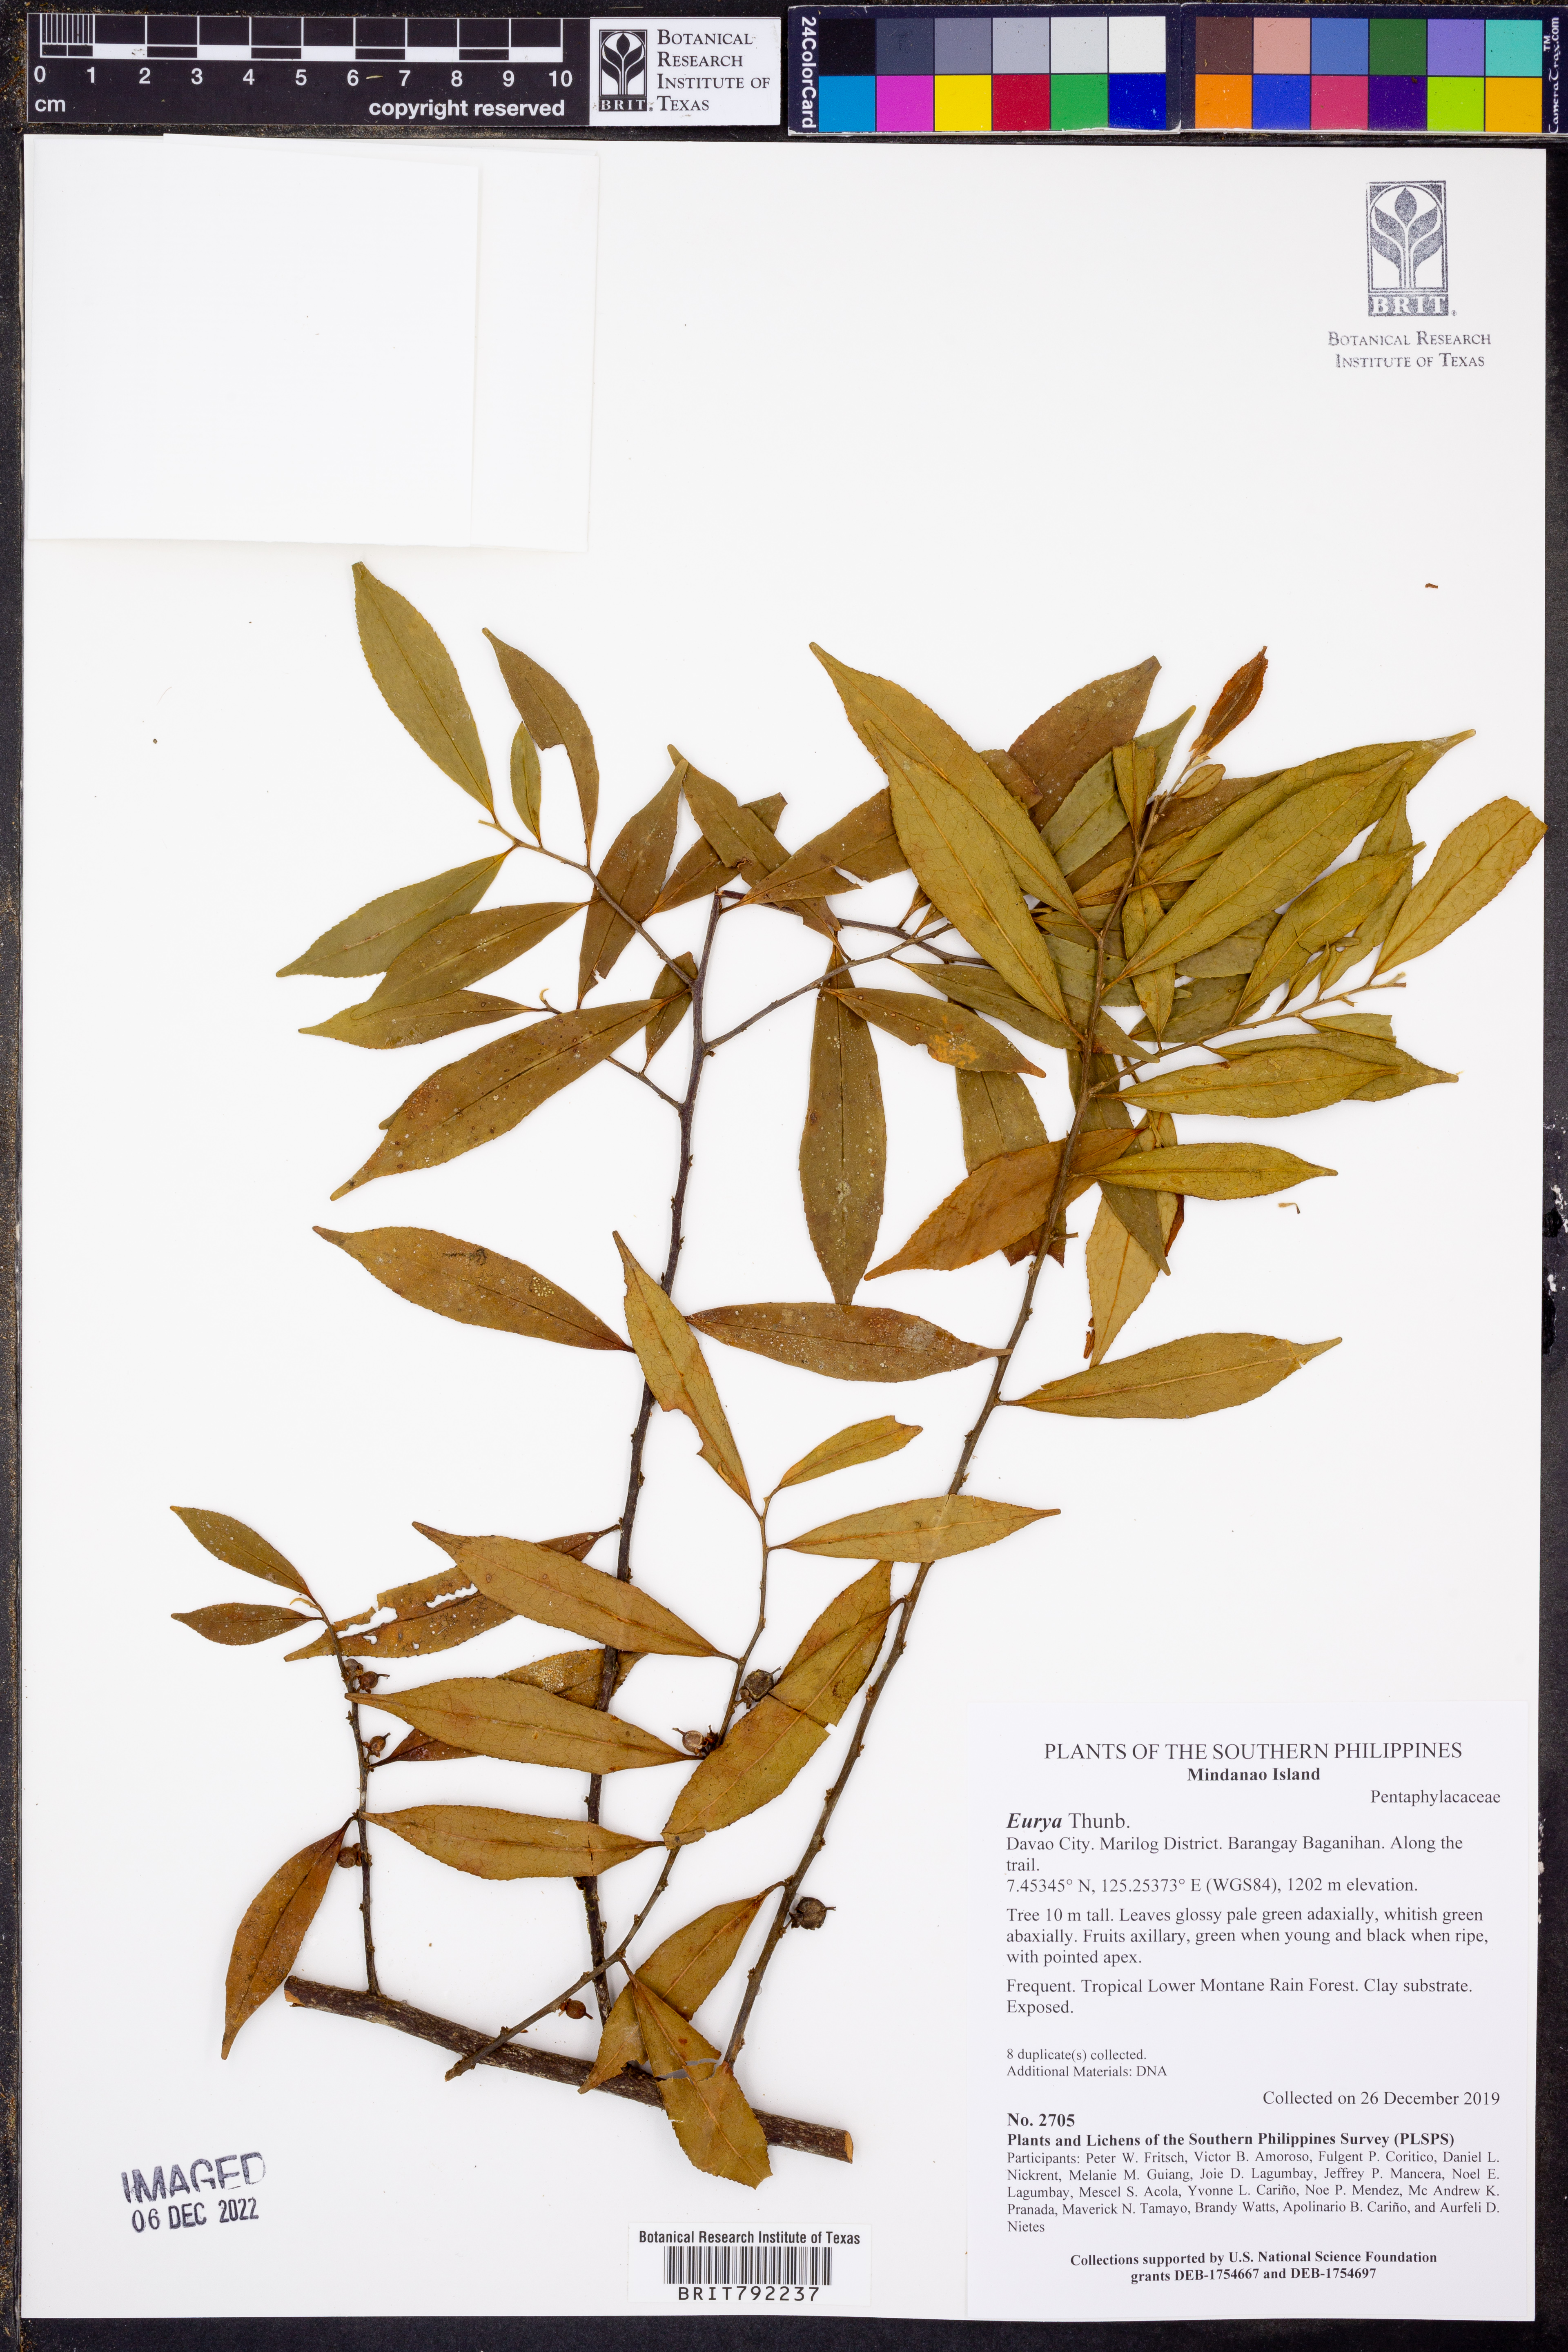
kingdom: Plantae
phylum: Tracheophyta
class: Magnoliopsida
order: Ericales
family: Pentaphylacaceae
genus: Eurya
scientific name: Eurya
